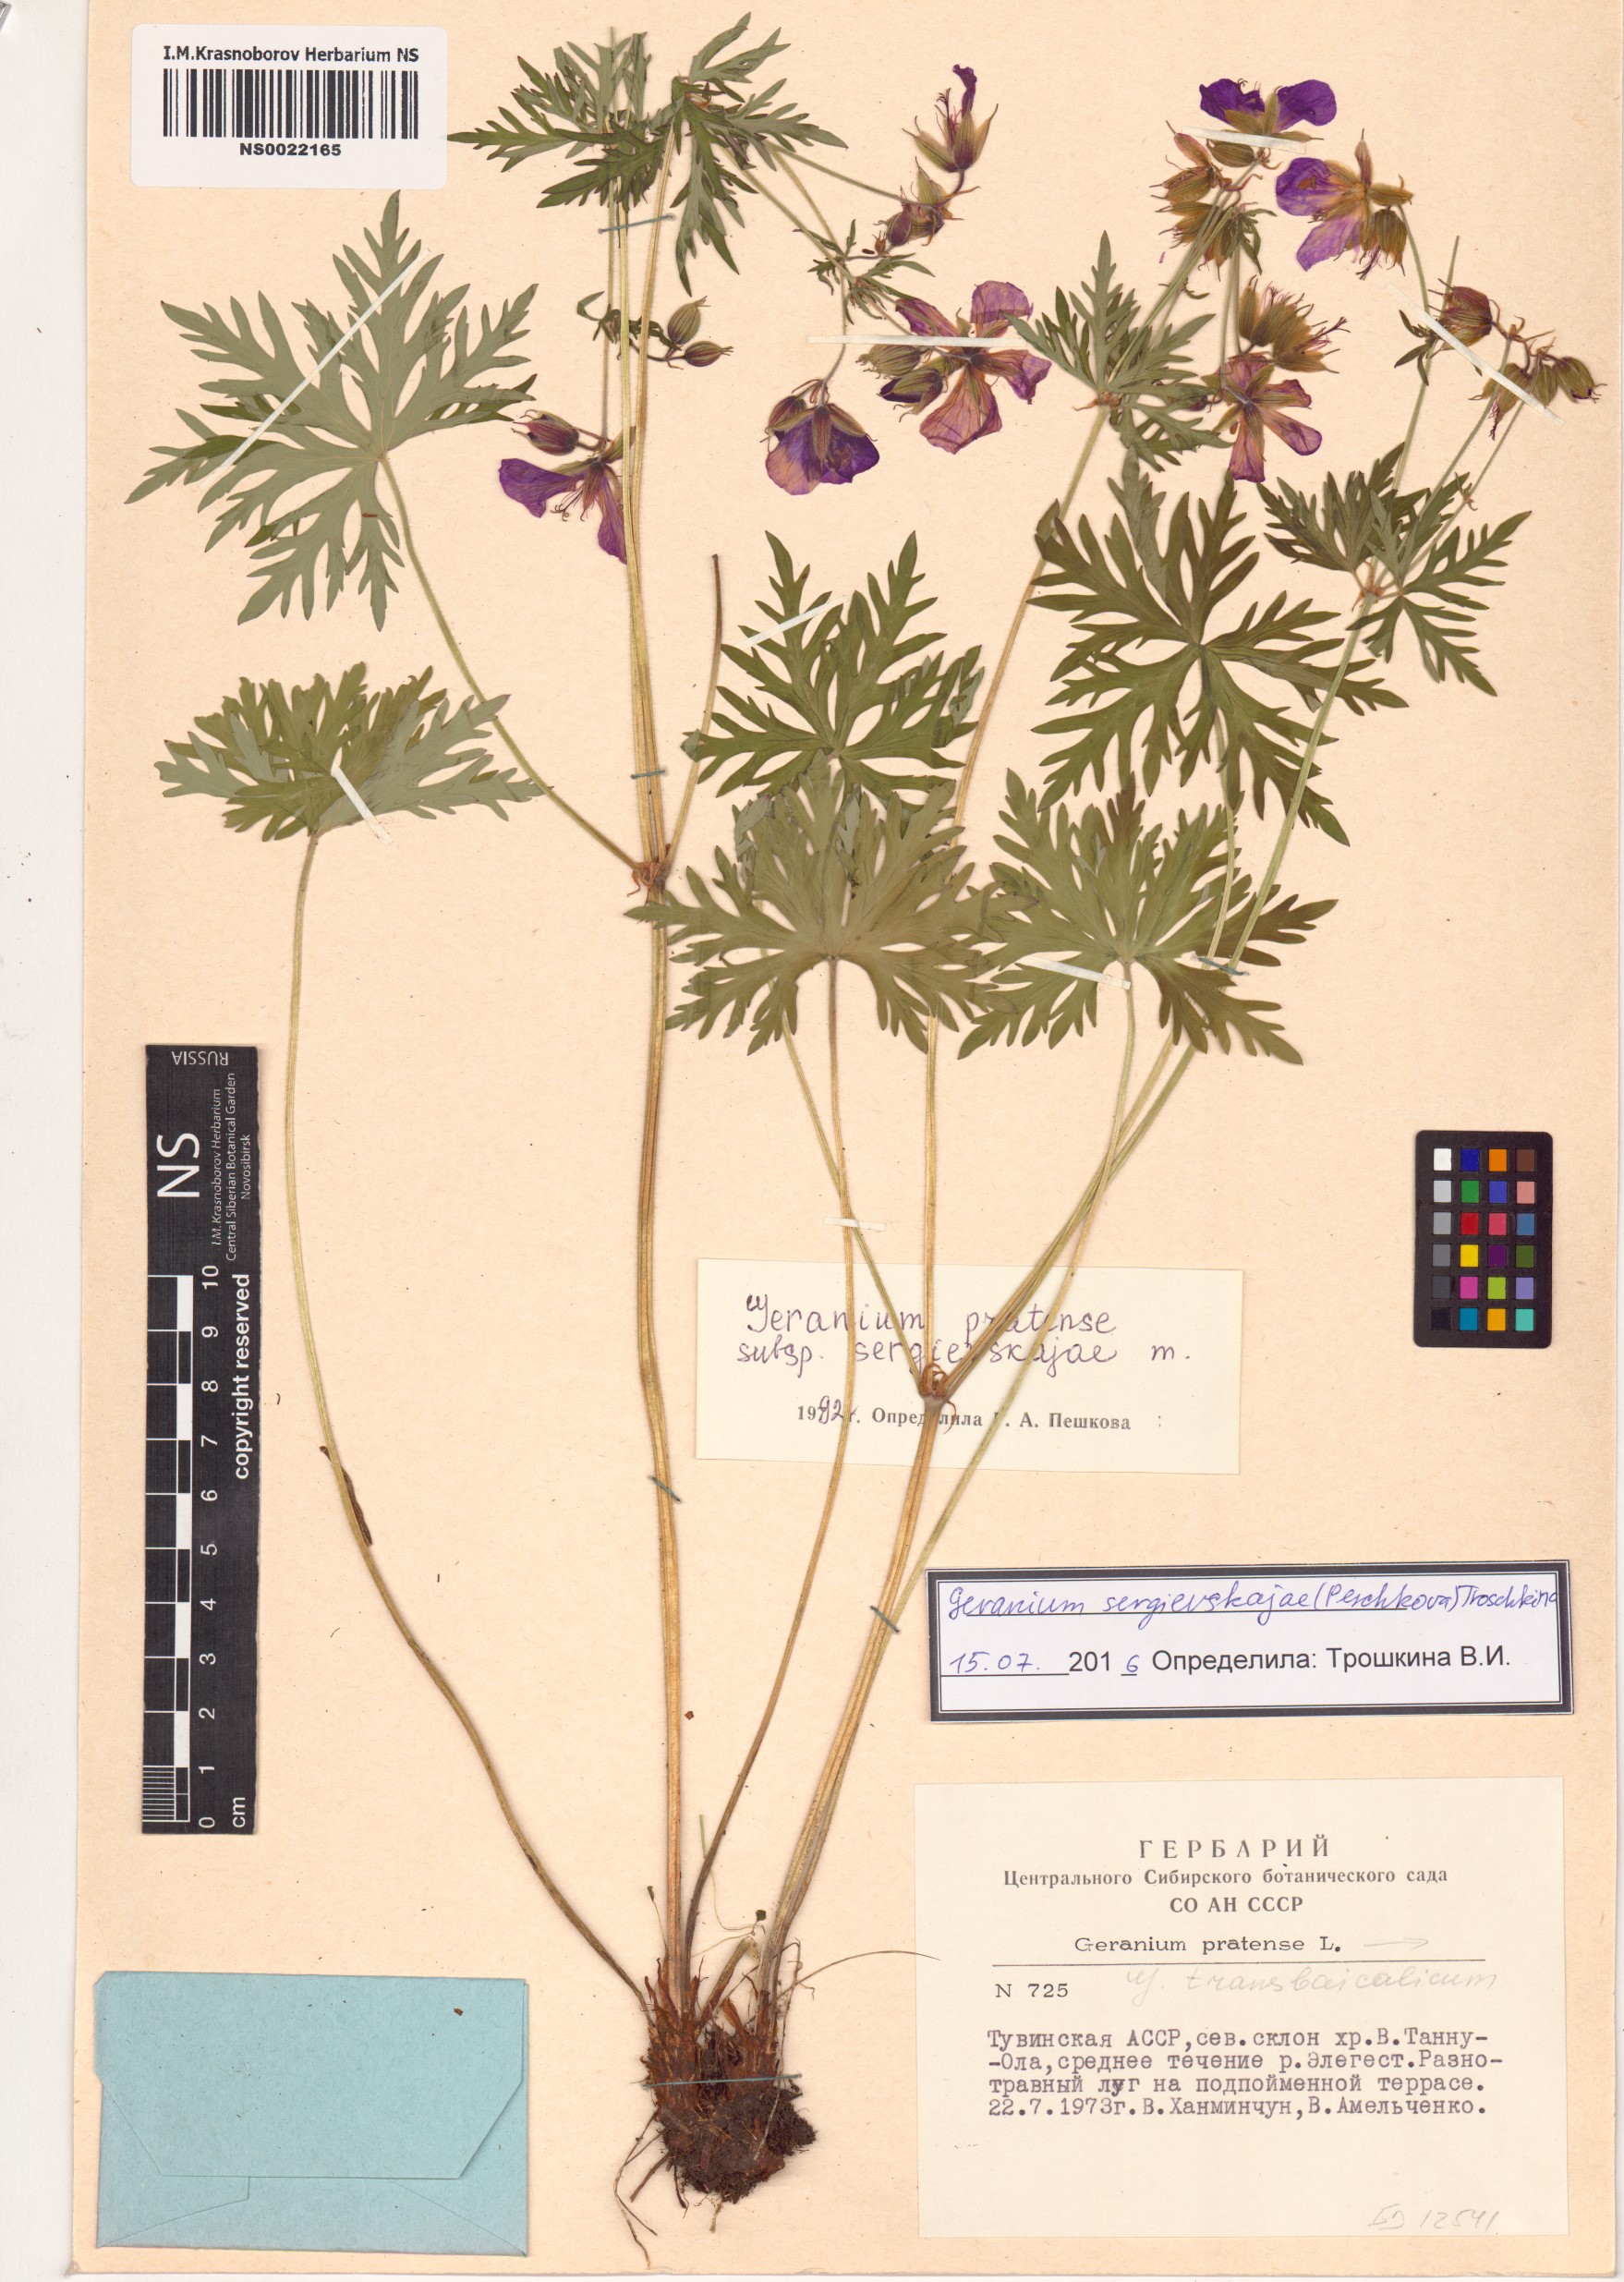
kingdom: Plantae
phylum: Tracheophyta
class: Magnoliopsida
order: Geraniales
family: Geraniaceae
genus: Geranium
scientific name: Geranium pratense
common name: Meadow crane's-bill
